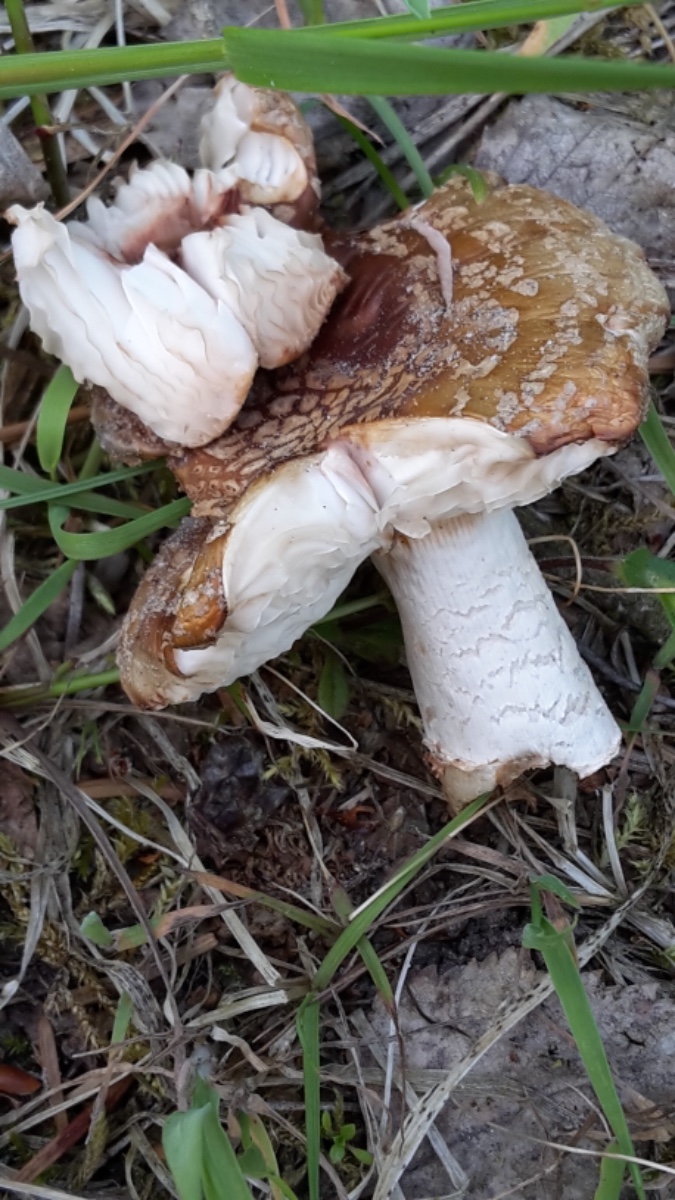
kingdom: Fungi
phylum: Basidiomycota
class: Agaricomycetes
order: Agaricales
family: Amanitaceae
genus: Amanita
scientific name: Amanita rubescens
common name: rødmende fluesvamp
